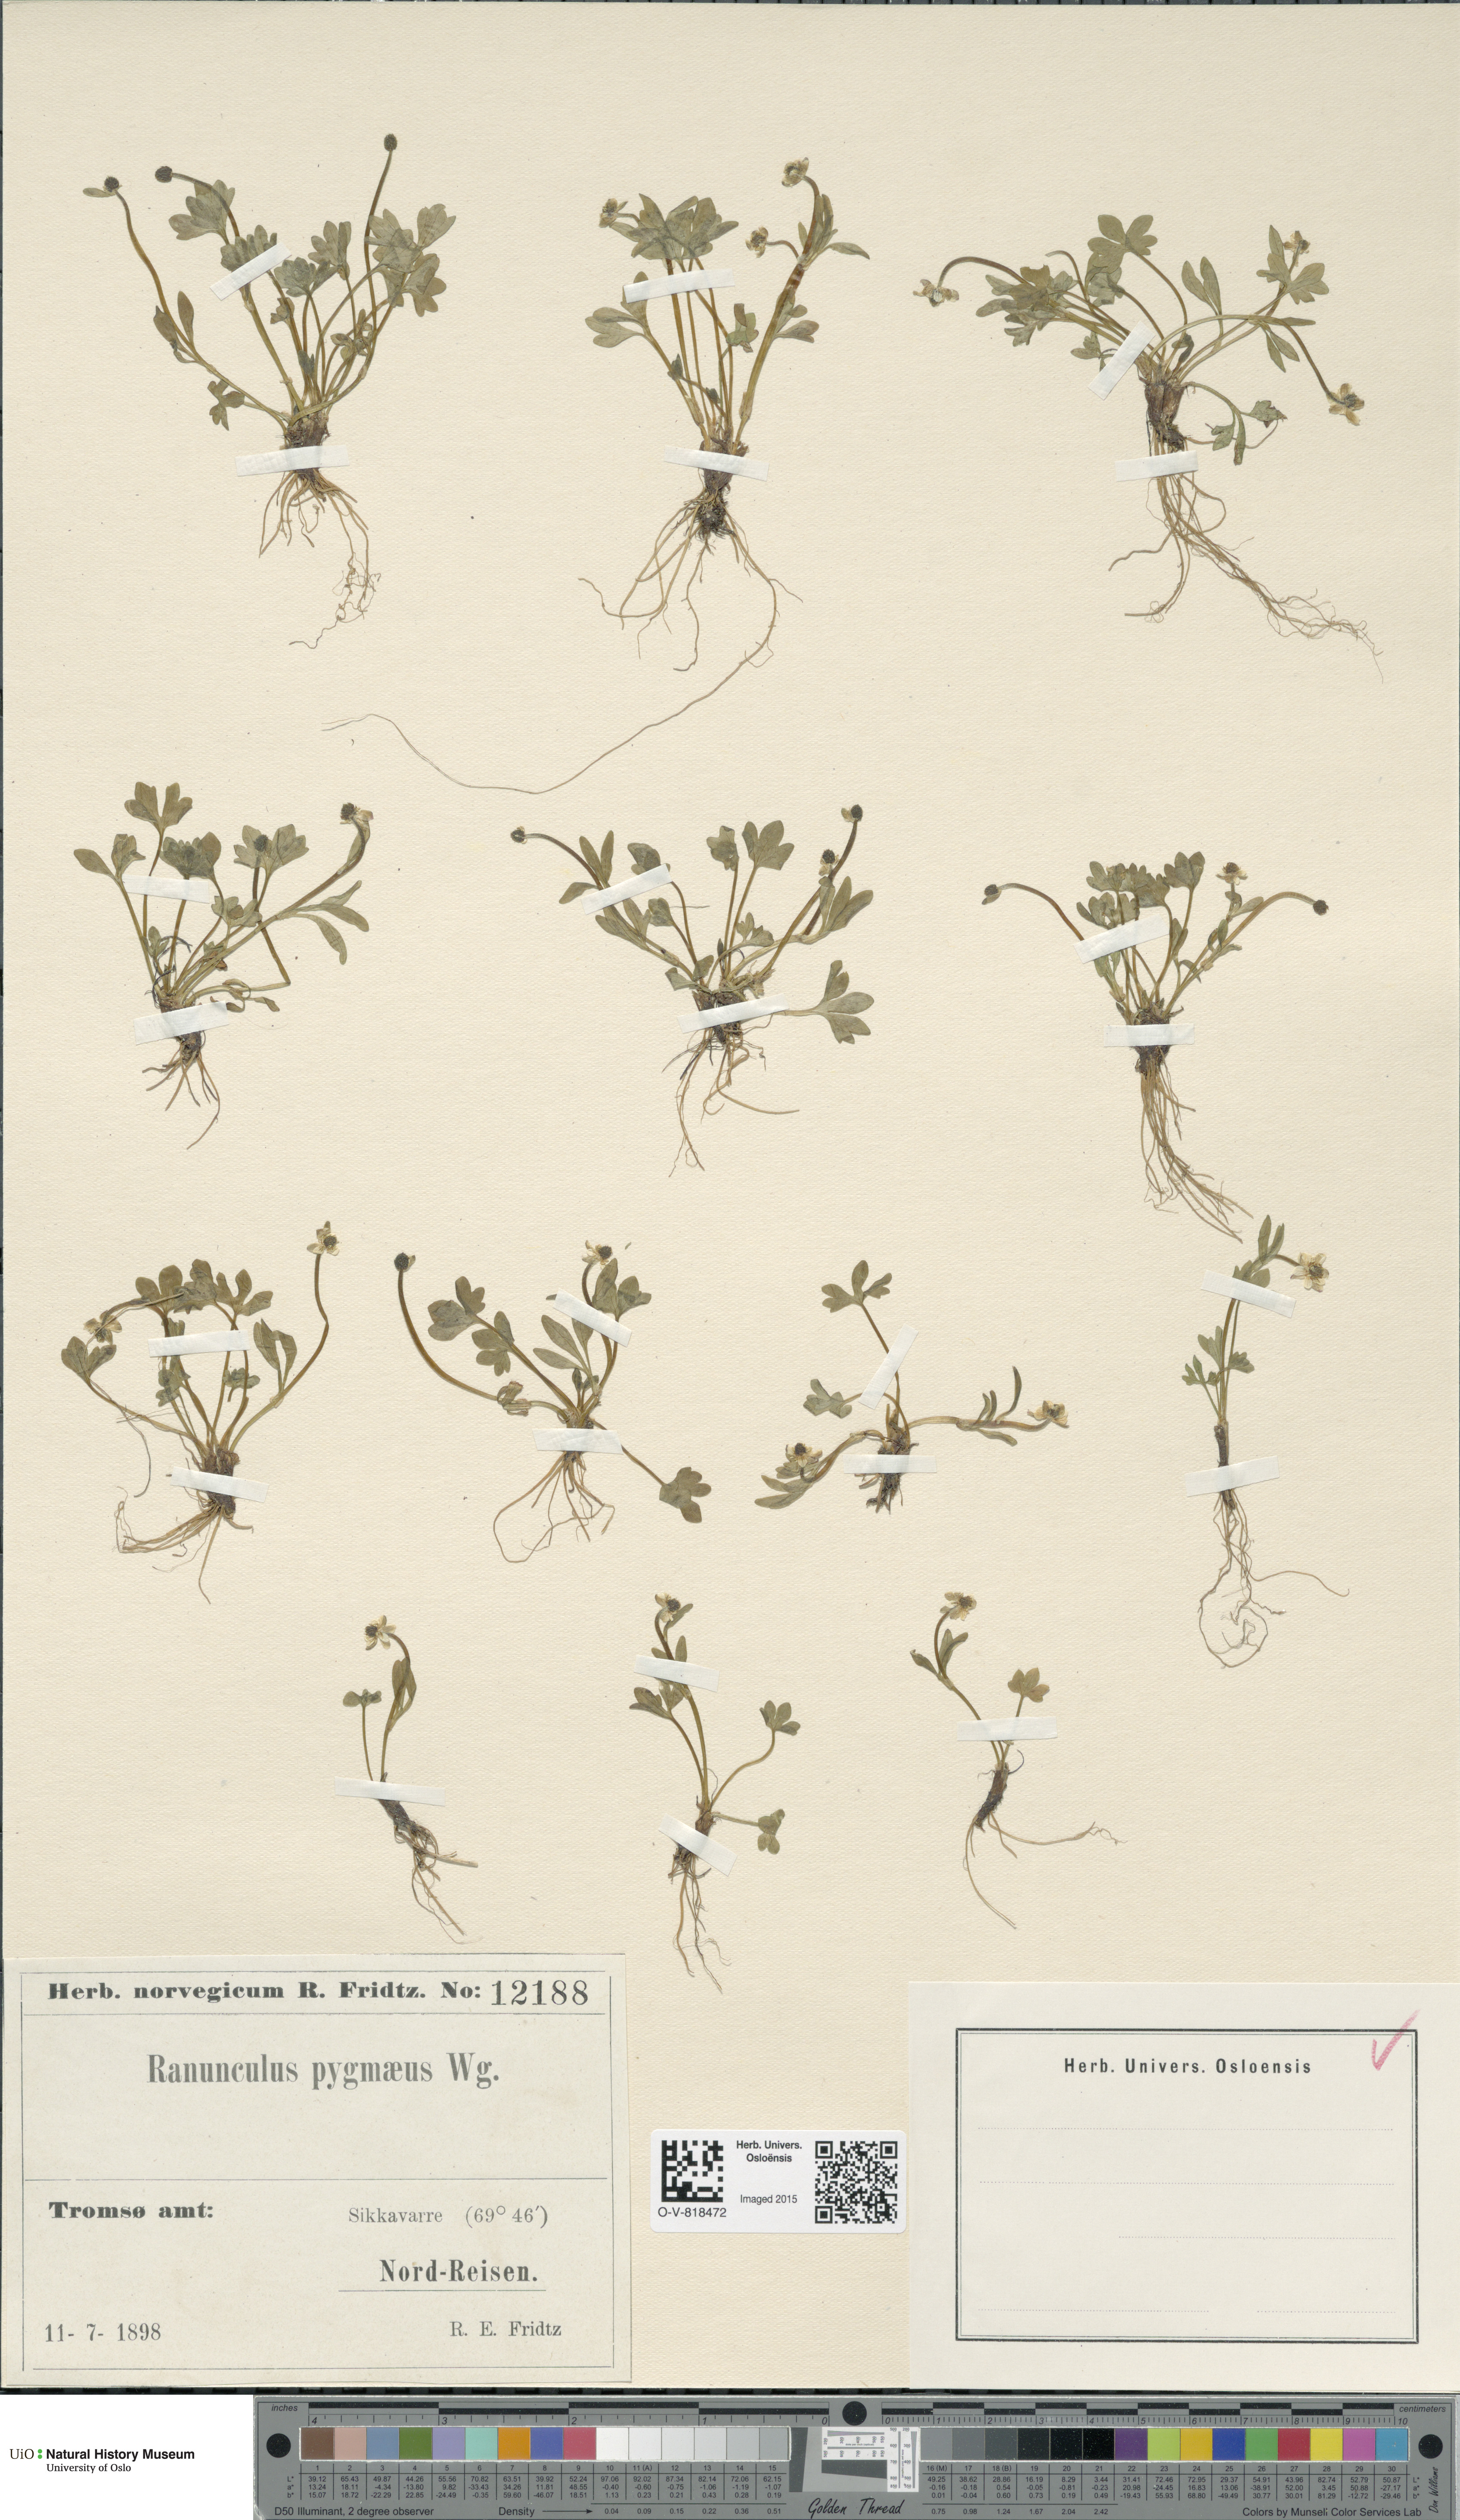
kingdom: Plantae
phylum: Tracheophyta
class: Magnoliopsida
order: Ranunculales
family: Ranunculaceae
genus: Ranunculus
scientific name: Ranunculus pygmaeus
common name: Dwarf buttercup
